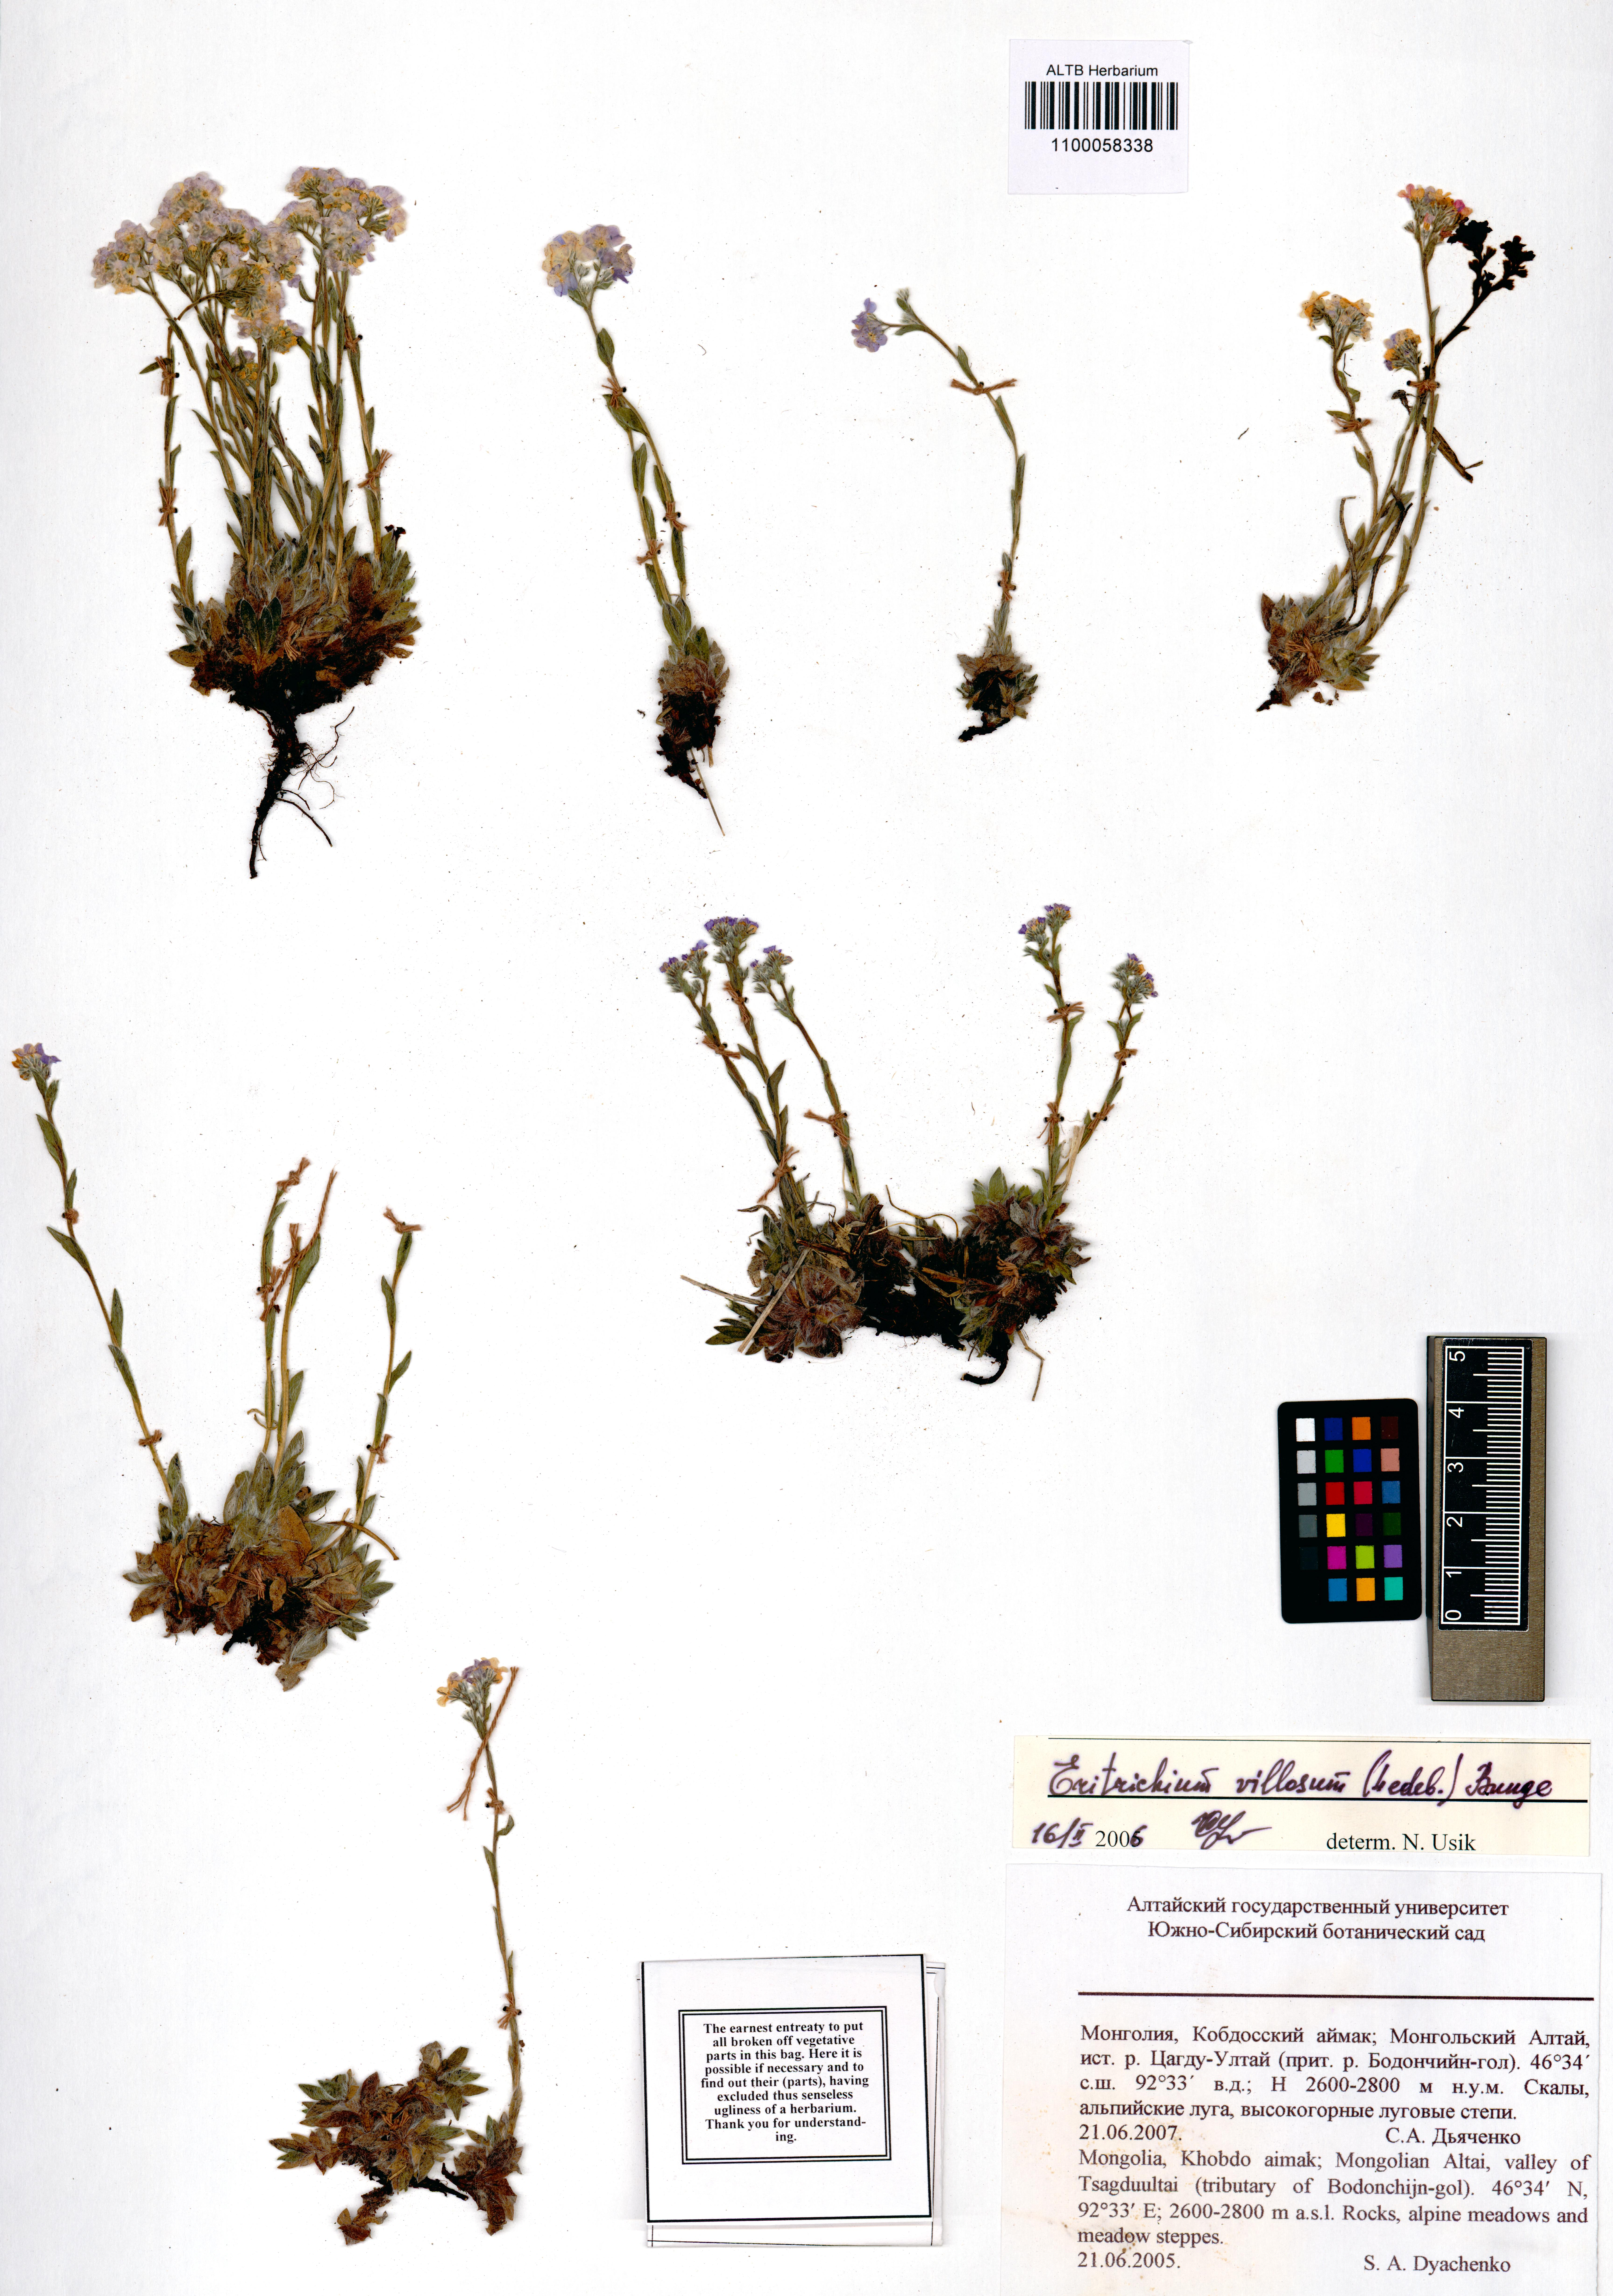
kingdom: Plantae
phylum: Tracheophyta
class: Magnoliopsida
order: Boraginales
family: Boraginaceae
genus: Eritrichium
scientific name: Eritrichium villosum
